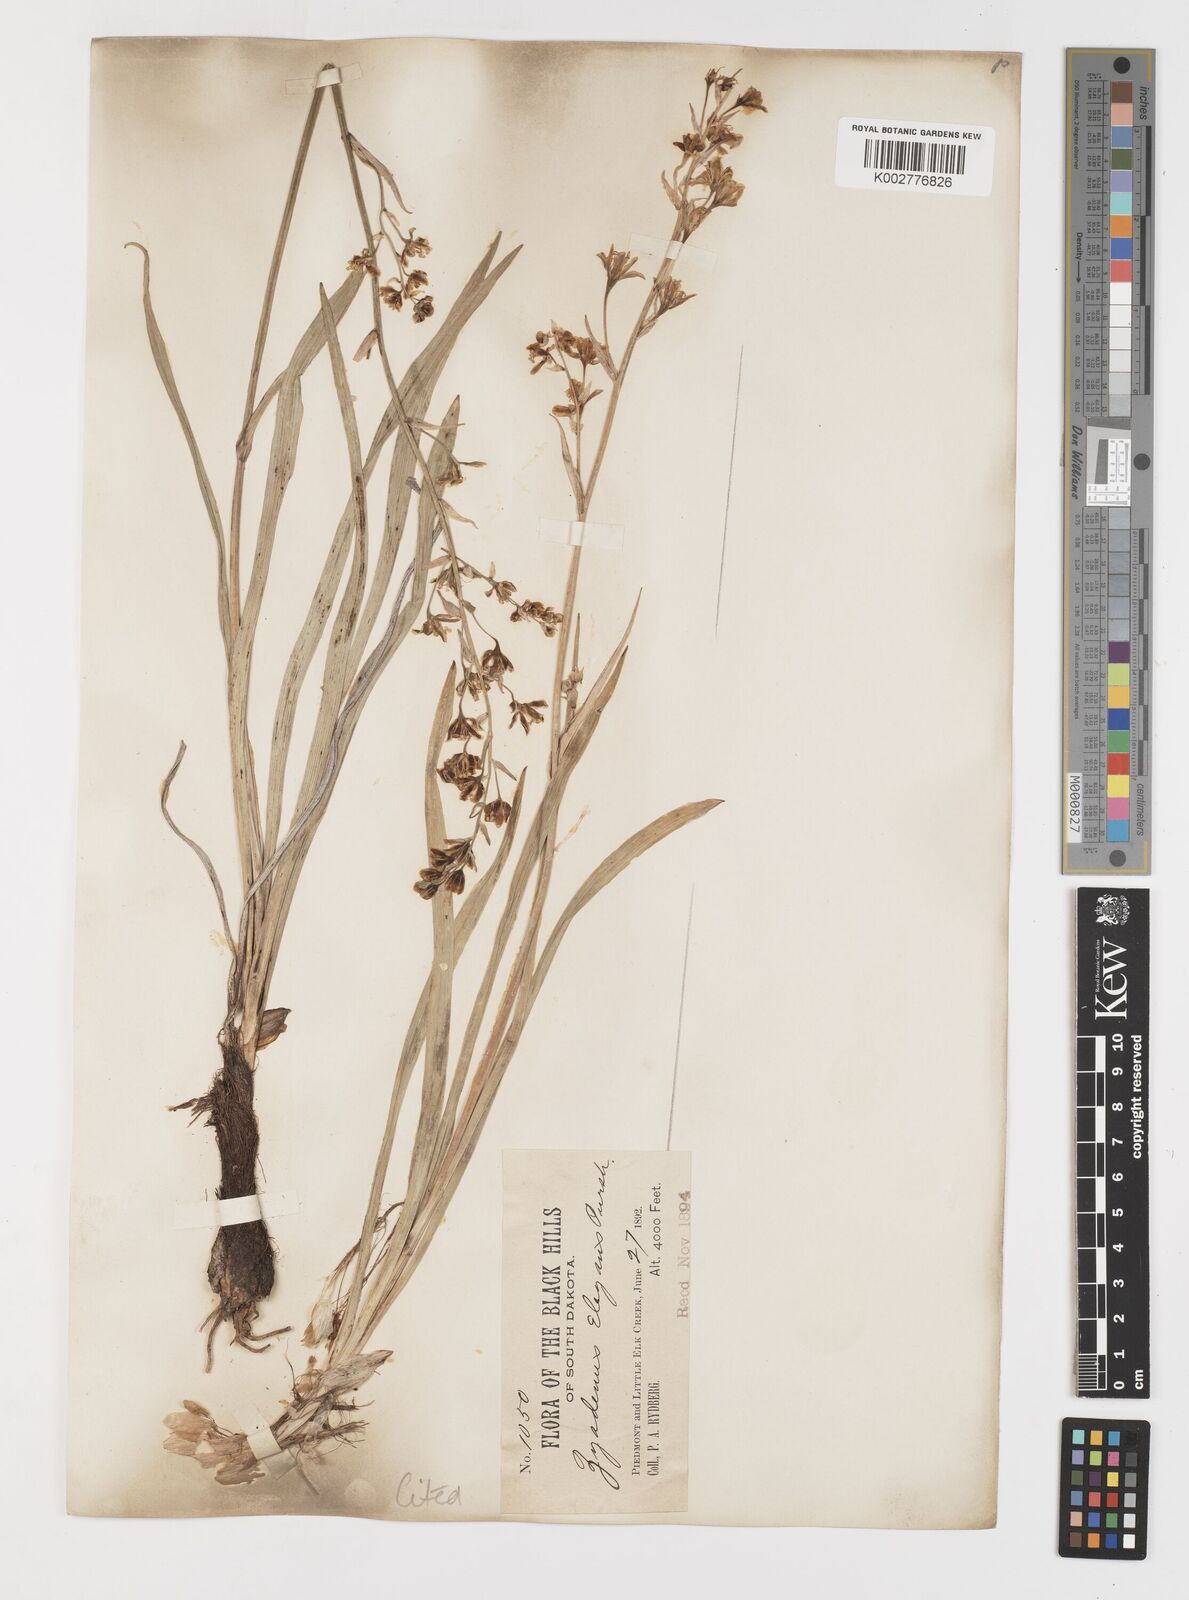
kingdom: Plantae
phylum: Tracheophyta
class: Liliopsida
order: Liliales
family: Melanthiaceae
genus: Anticlea
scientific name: Anticlea elegans
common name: Mountain death camas
